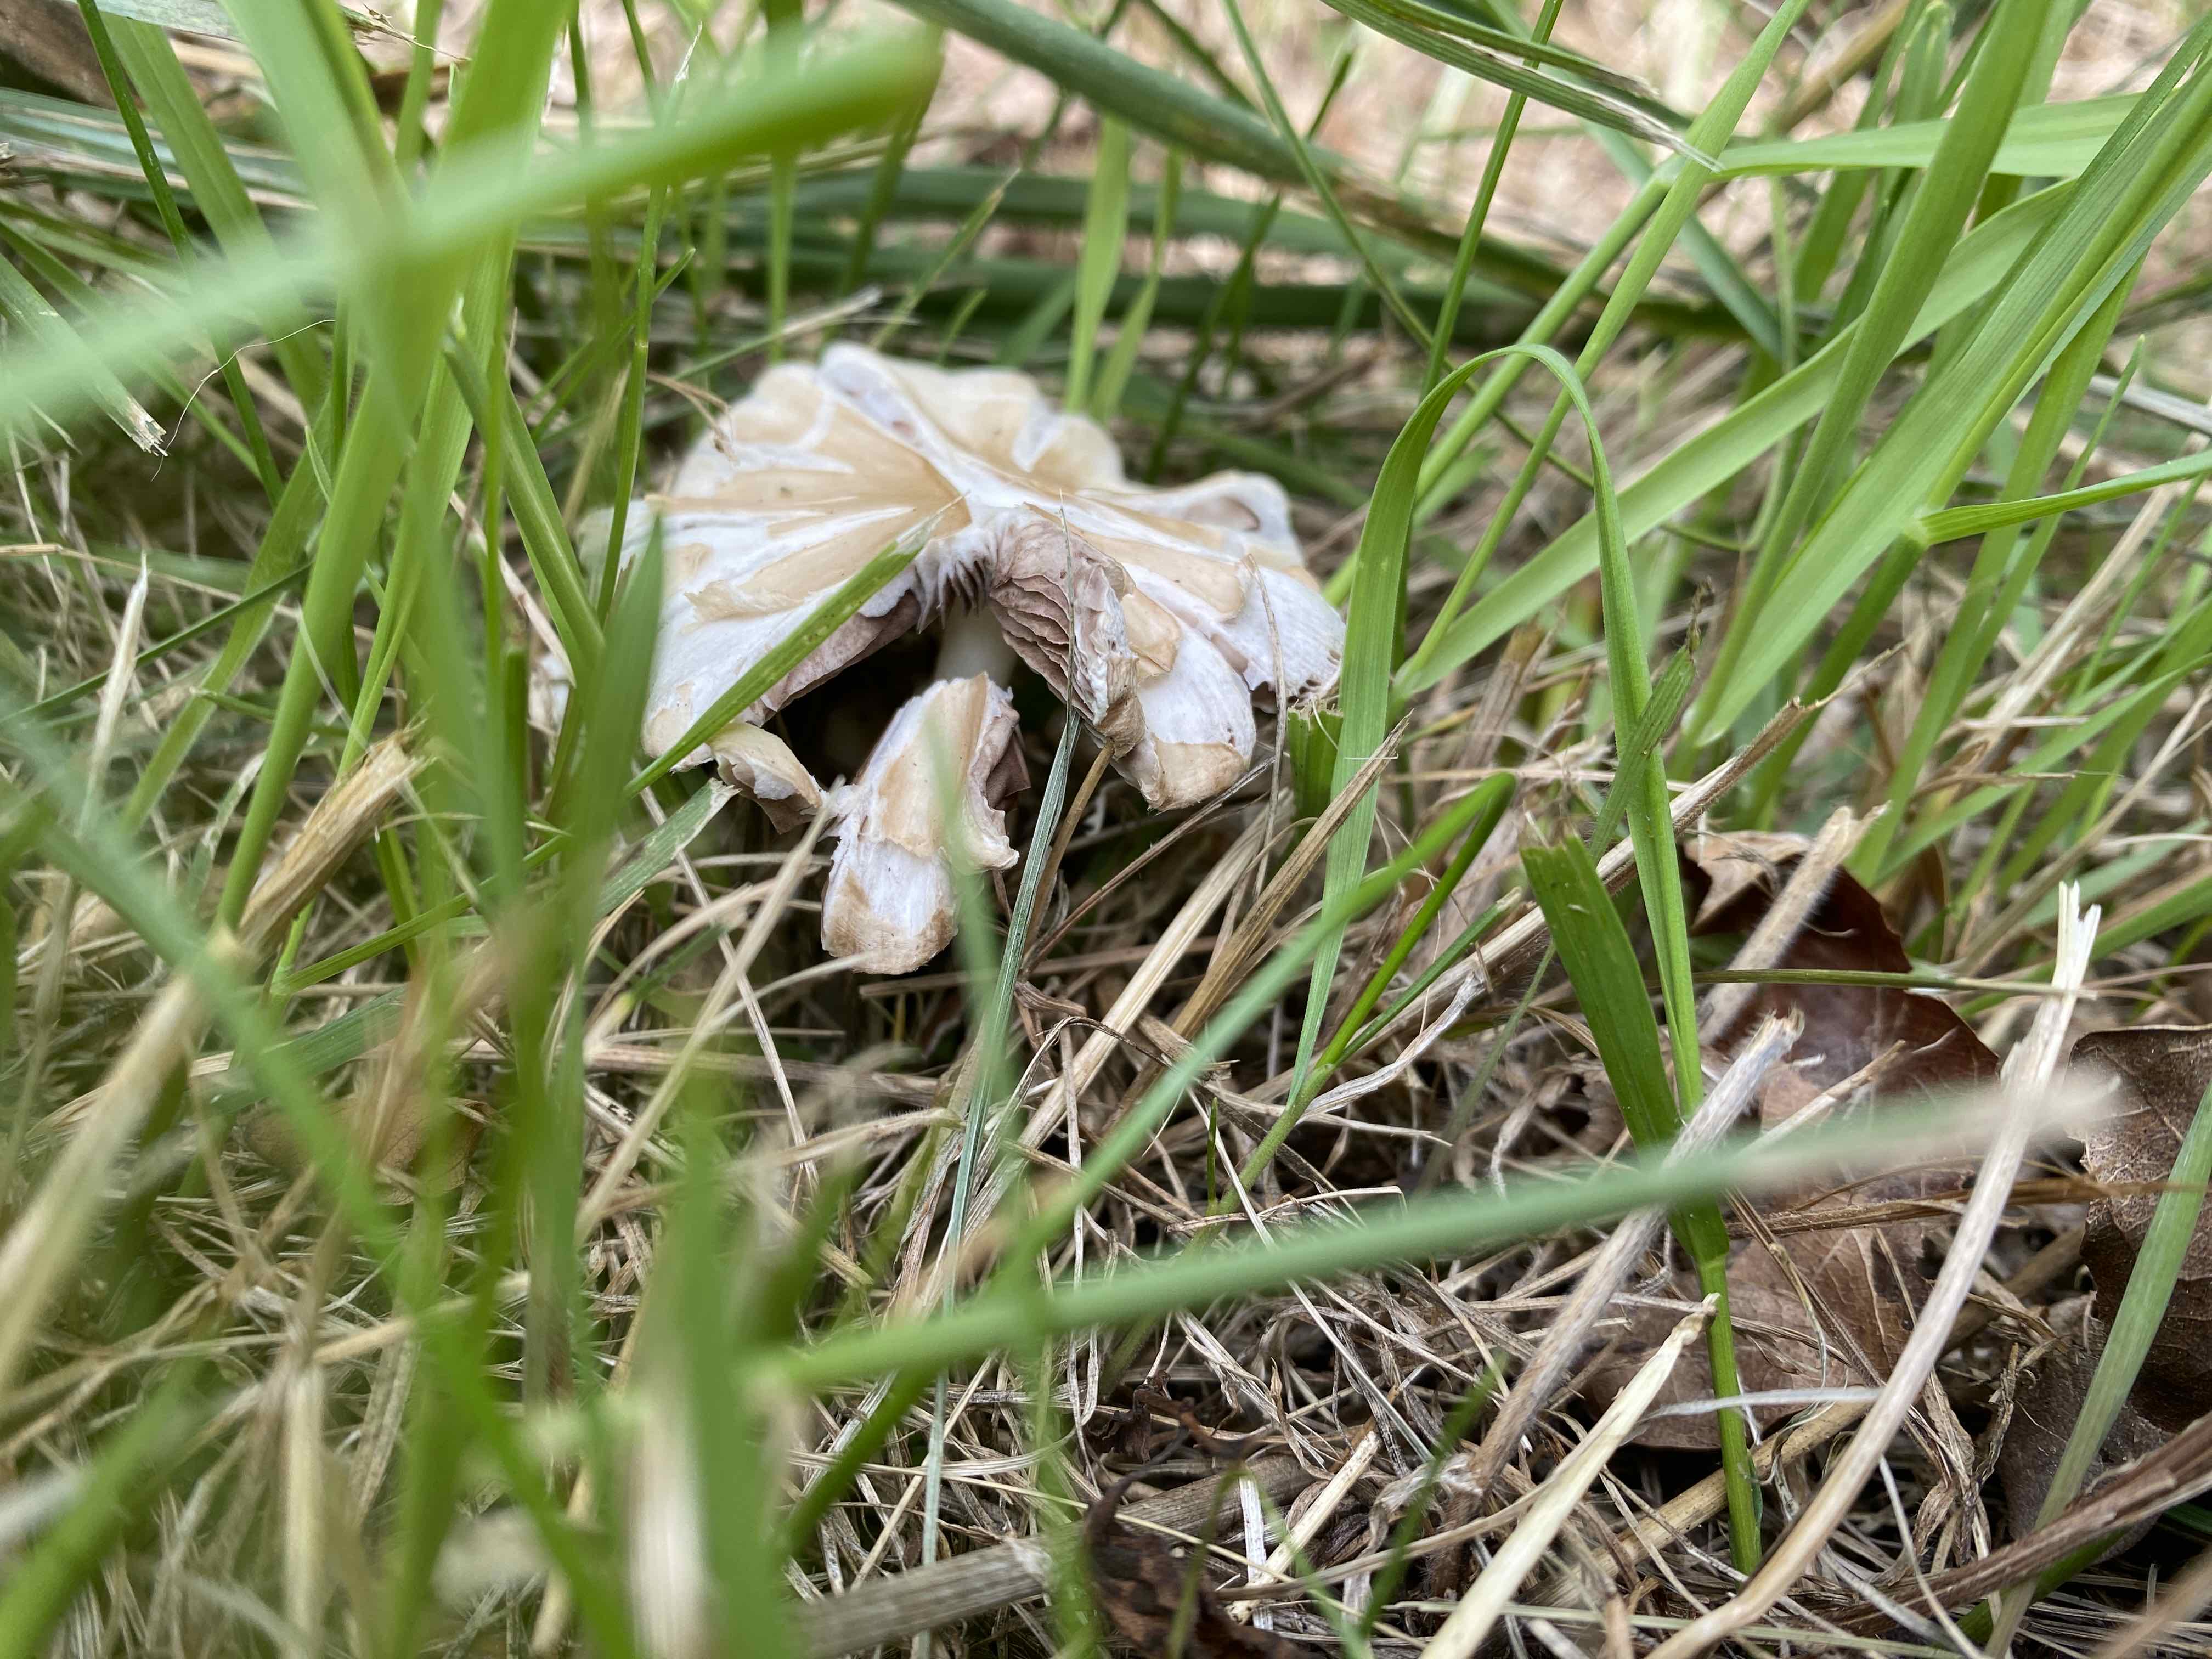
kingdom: Fungi
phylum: Basidiomycota
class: Agaricomycetes
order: Agaricales
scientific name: Agaricales
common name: champignonordenen
